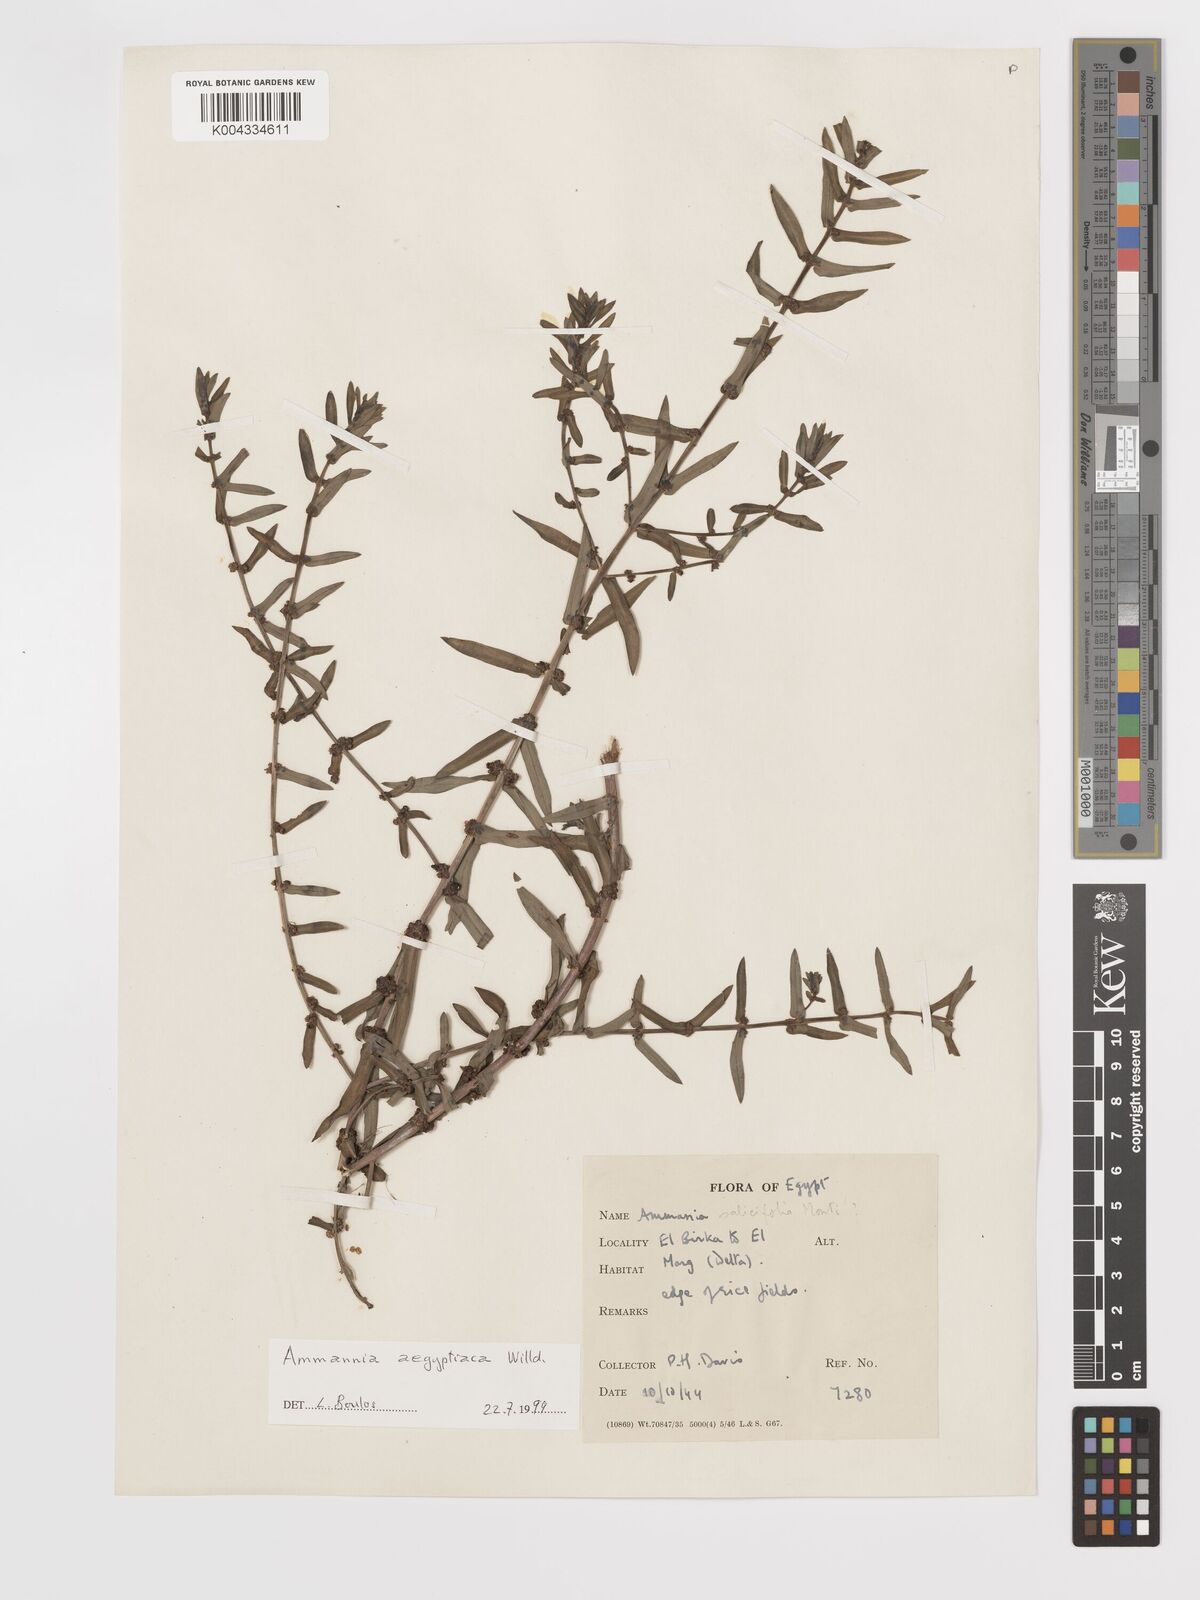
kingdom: Plantae
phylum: Tracheophyta
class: Magnoliopsida
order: Myrtales
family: Lythraceae
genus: Ammannia
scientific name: Ammannia
